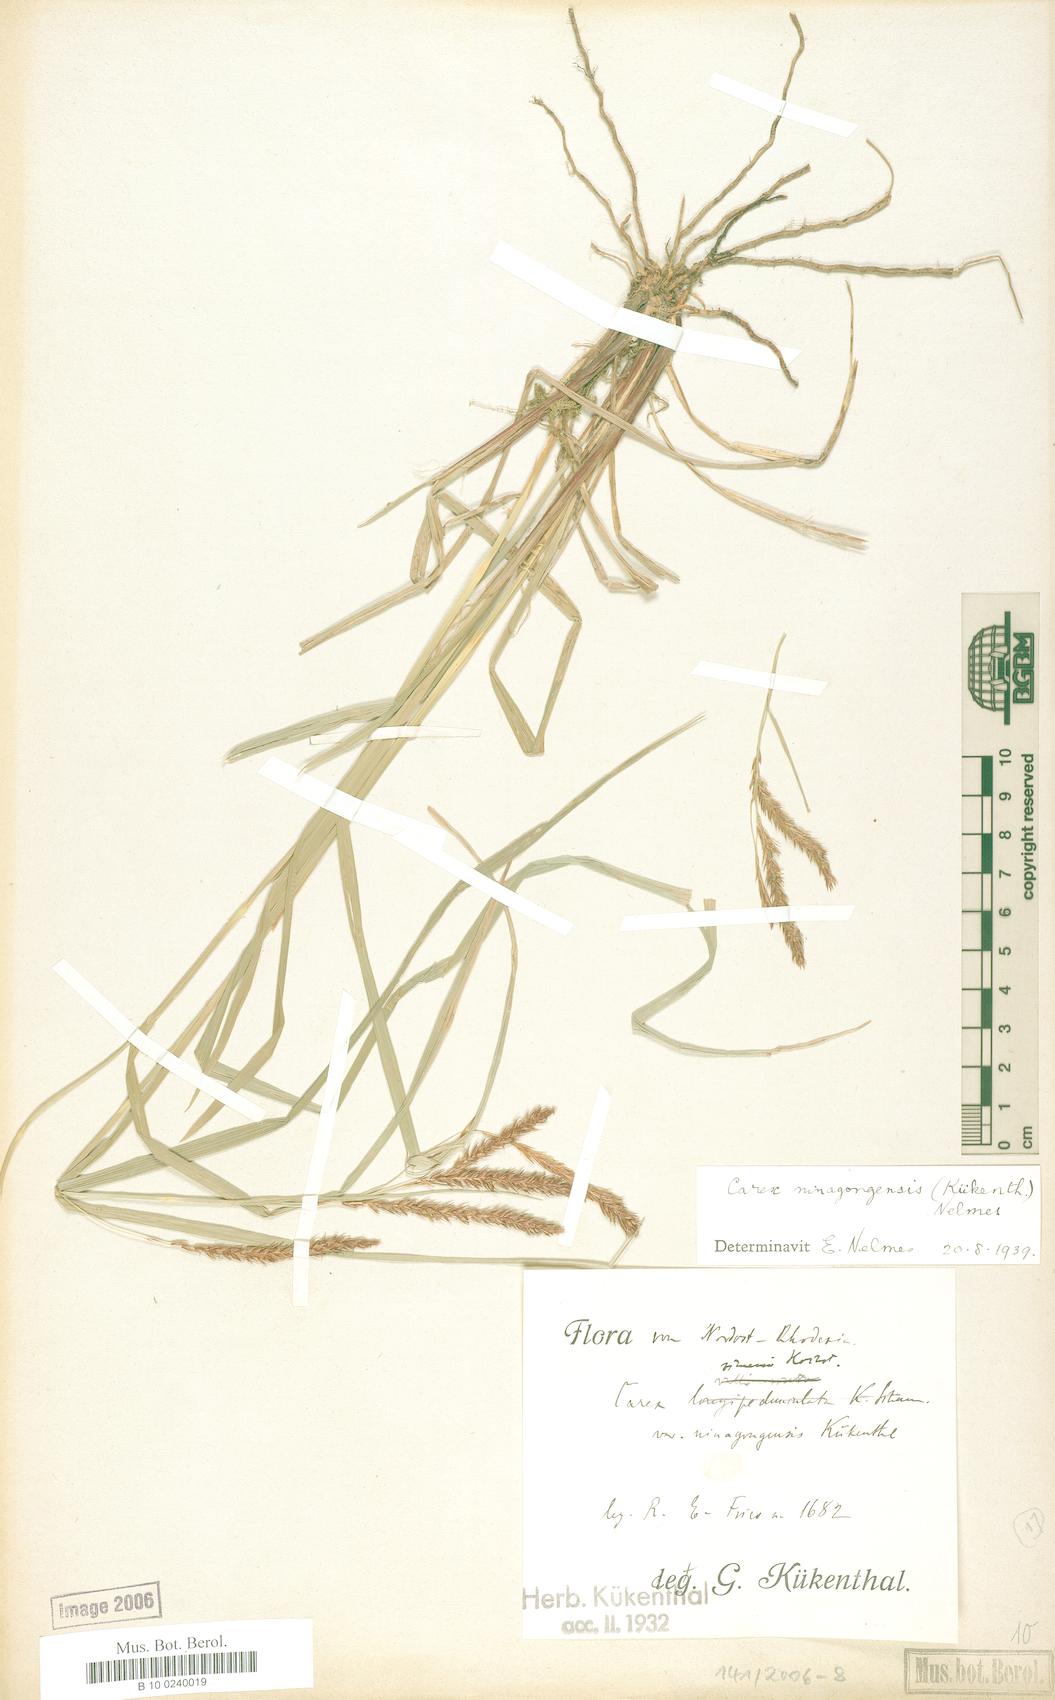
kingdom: Plantae
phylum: Tracheophyta
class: Liliopsida
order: Poales
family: Cyperaceae
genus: Carex
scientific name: Carex mannii
